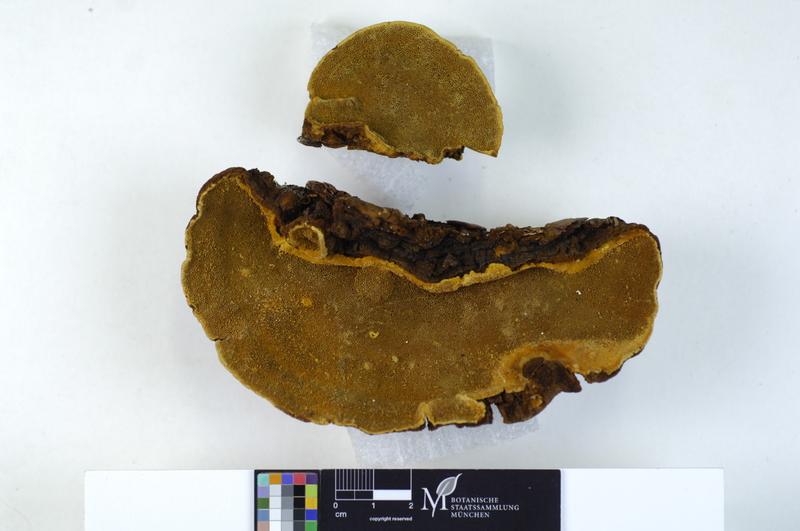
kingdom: Fungi
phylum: Basidiomycota
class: Agaricomycetes
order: Hymenochaetales
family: Hymenochaetaceae
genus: Phellinus
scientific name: Phellinus chrysoloma
